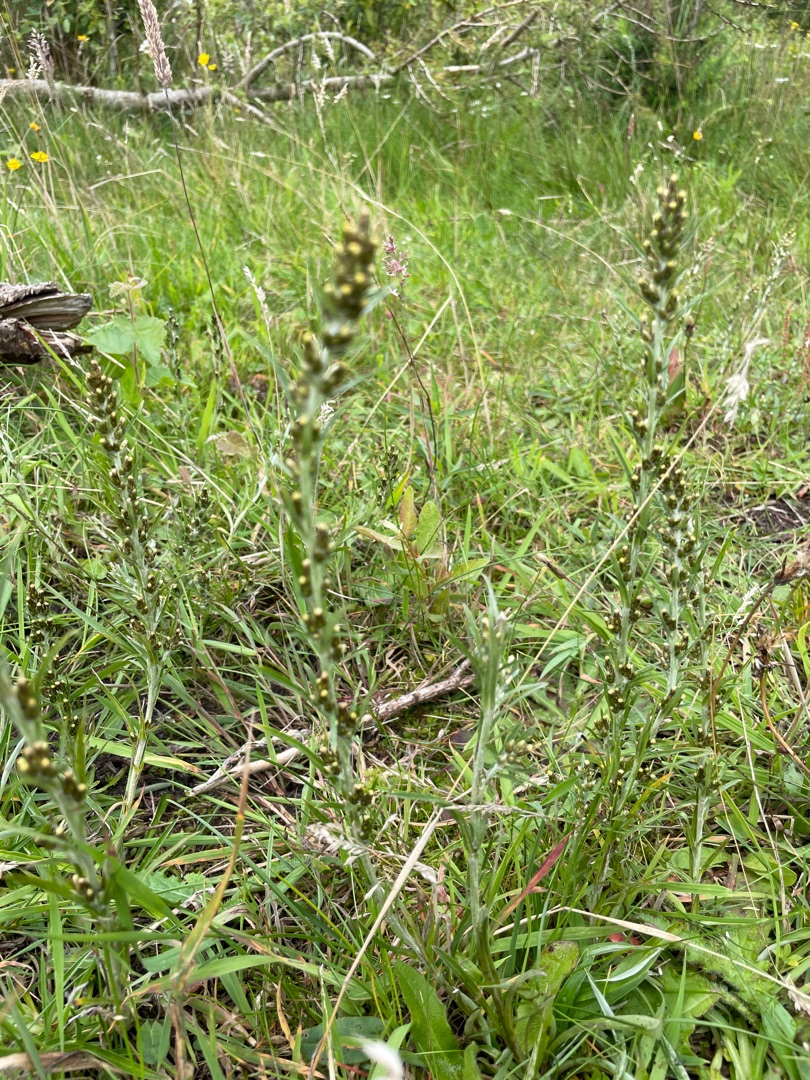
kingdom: Plantae
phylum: Tracheophyta
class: Magnoliopsida
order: Asterales
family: Asteraceae
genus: Omalotheca
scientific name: Omalotheca sylvatica
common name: Rank evighedsblomst
